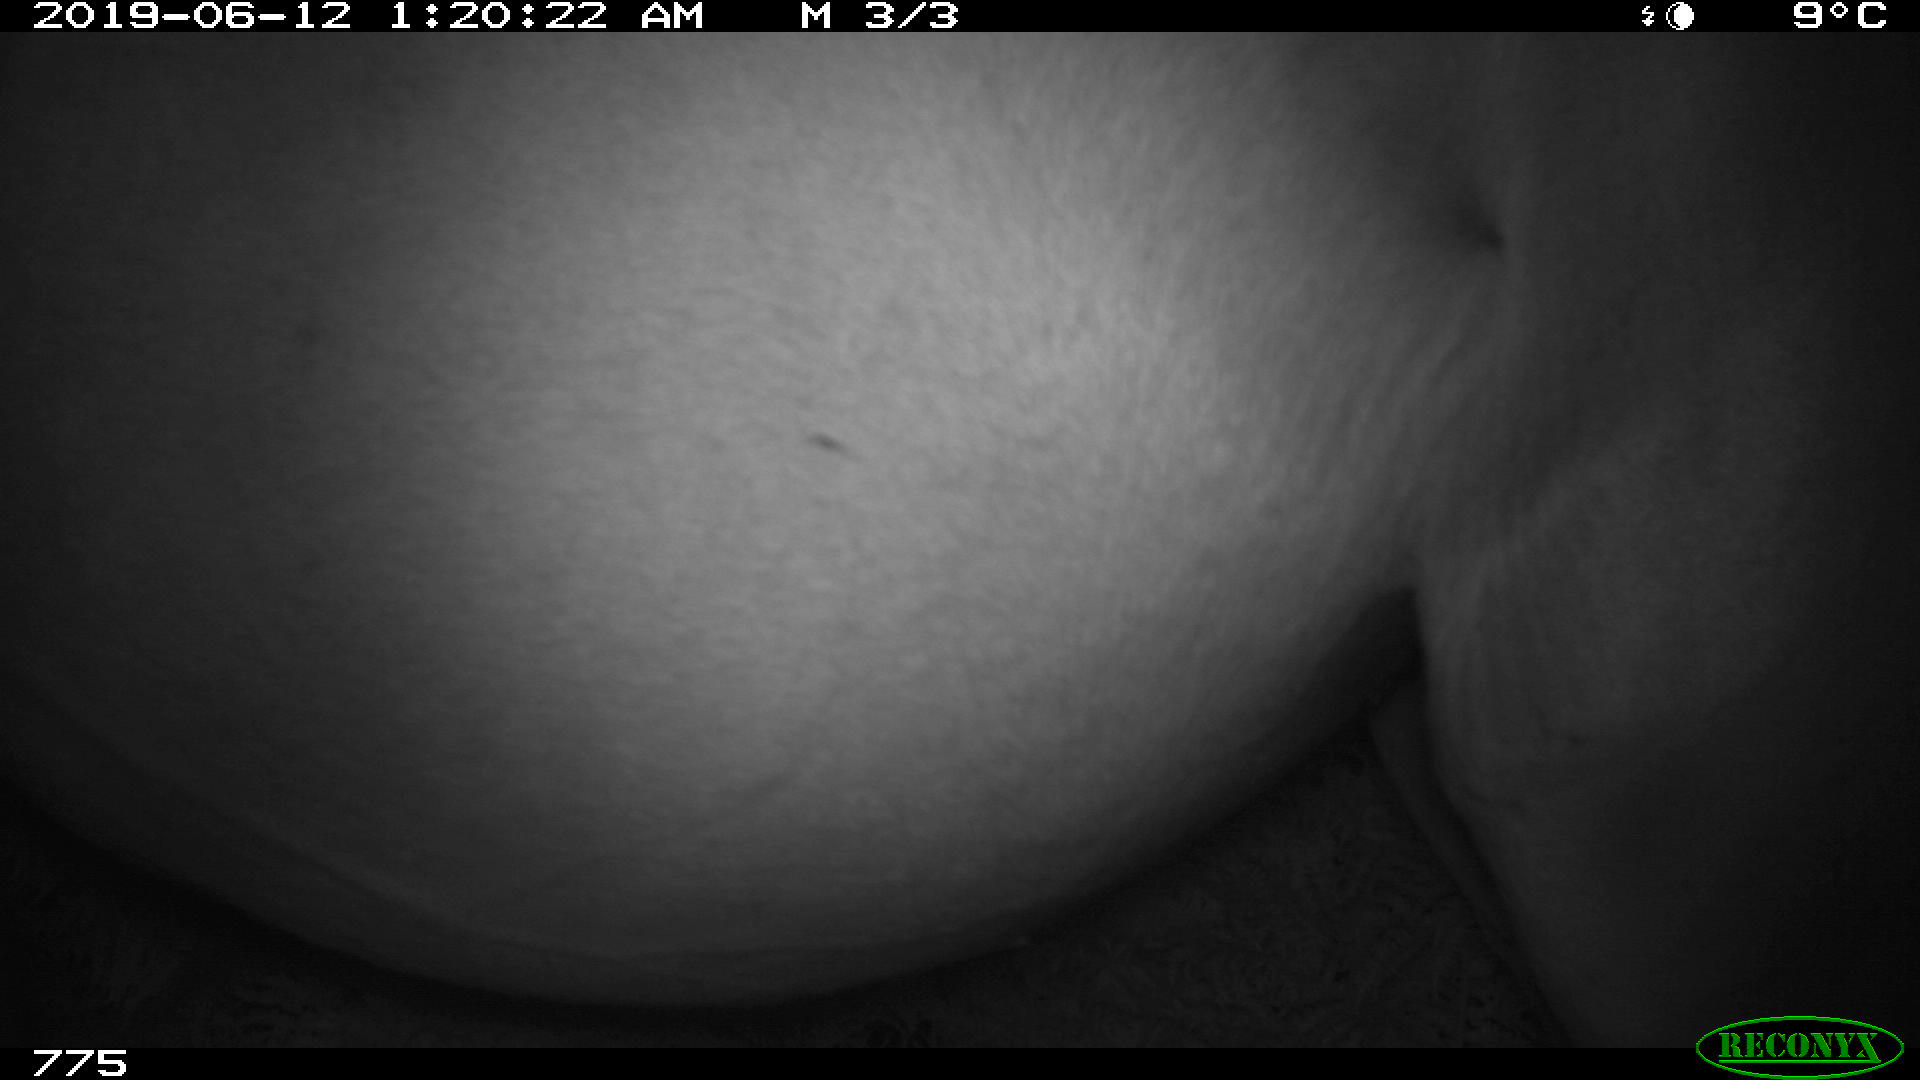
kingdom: Animalia
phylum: Chordata
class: Mammalia
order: Perissodactyla
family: Equidae
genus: Equus
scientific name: Equus caballus
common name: Horse
